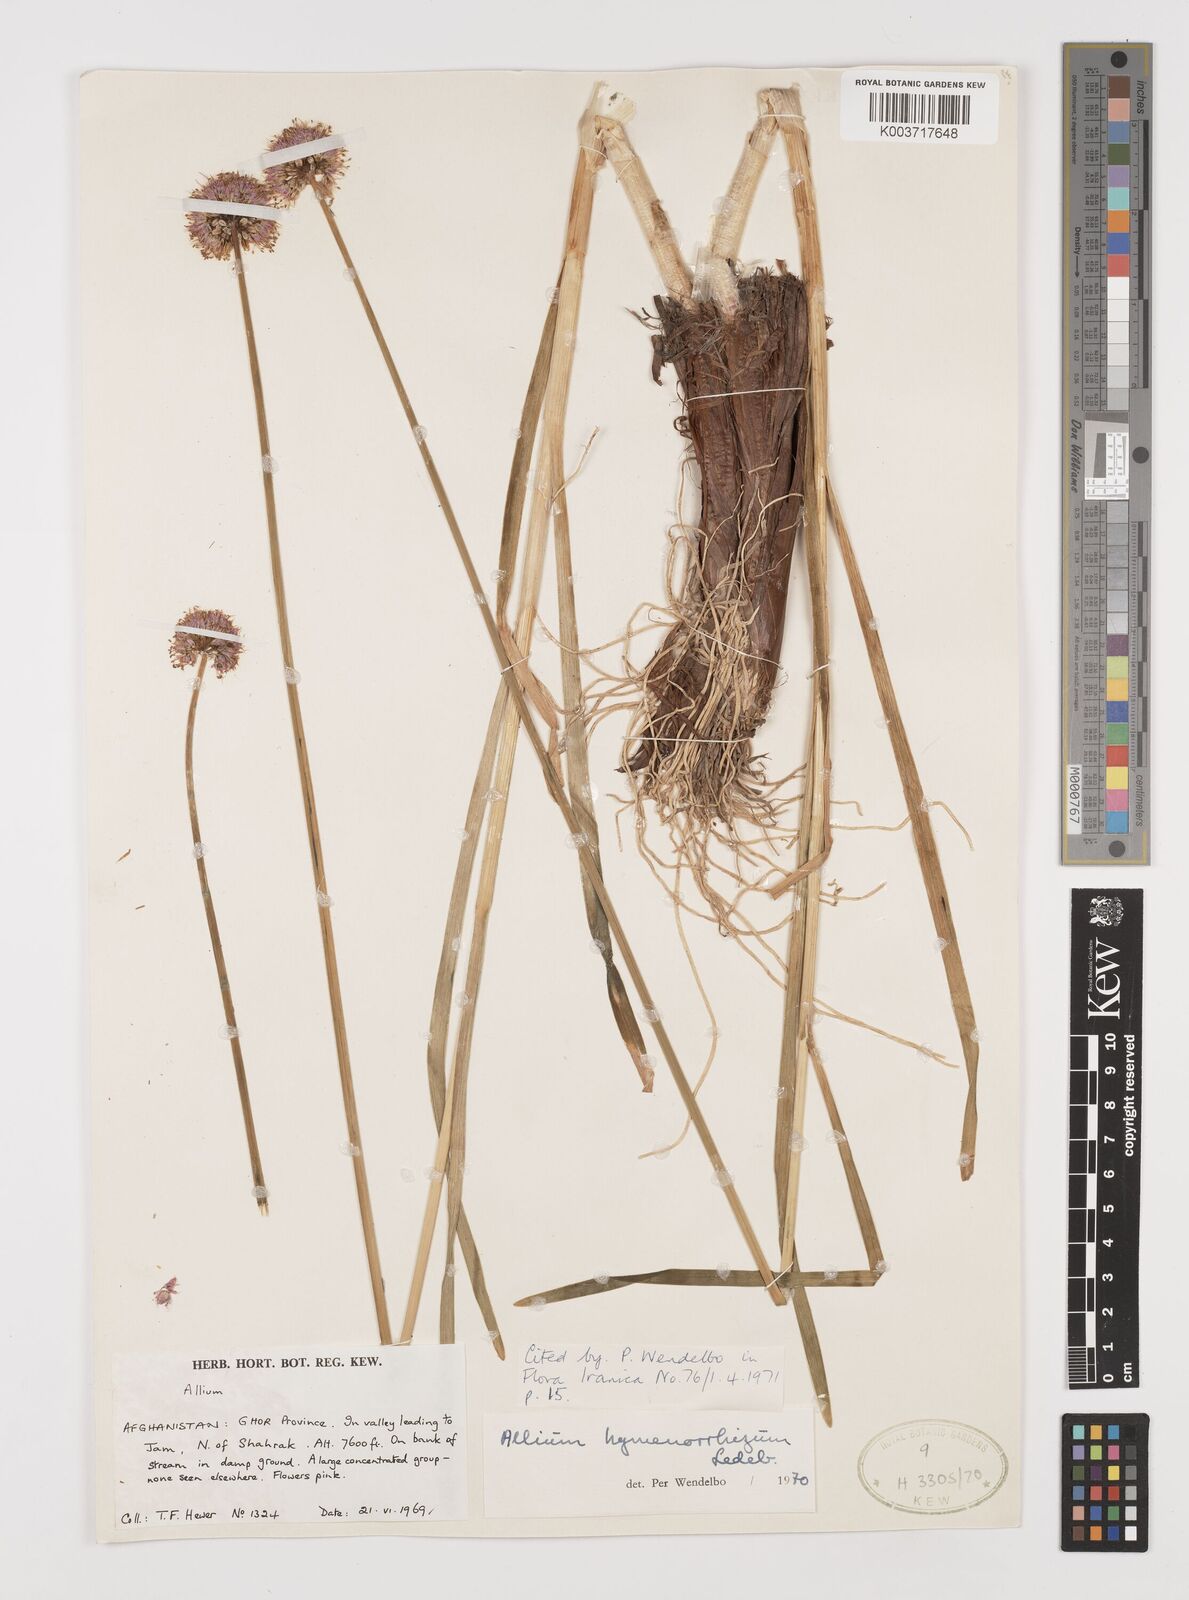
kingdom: Plantae
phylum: Tracheophyta
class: Liliopsida
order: Asparagales
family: Amaryllidaceae
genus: Allium
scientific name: Allium hymenorhizum
